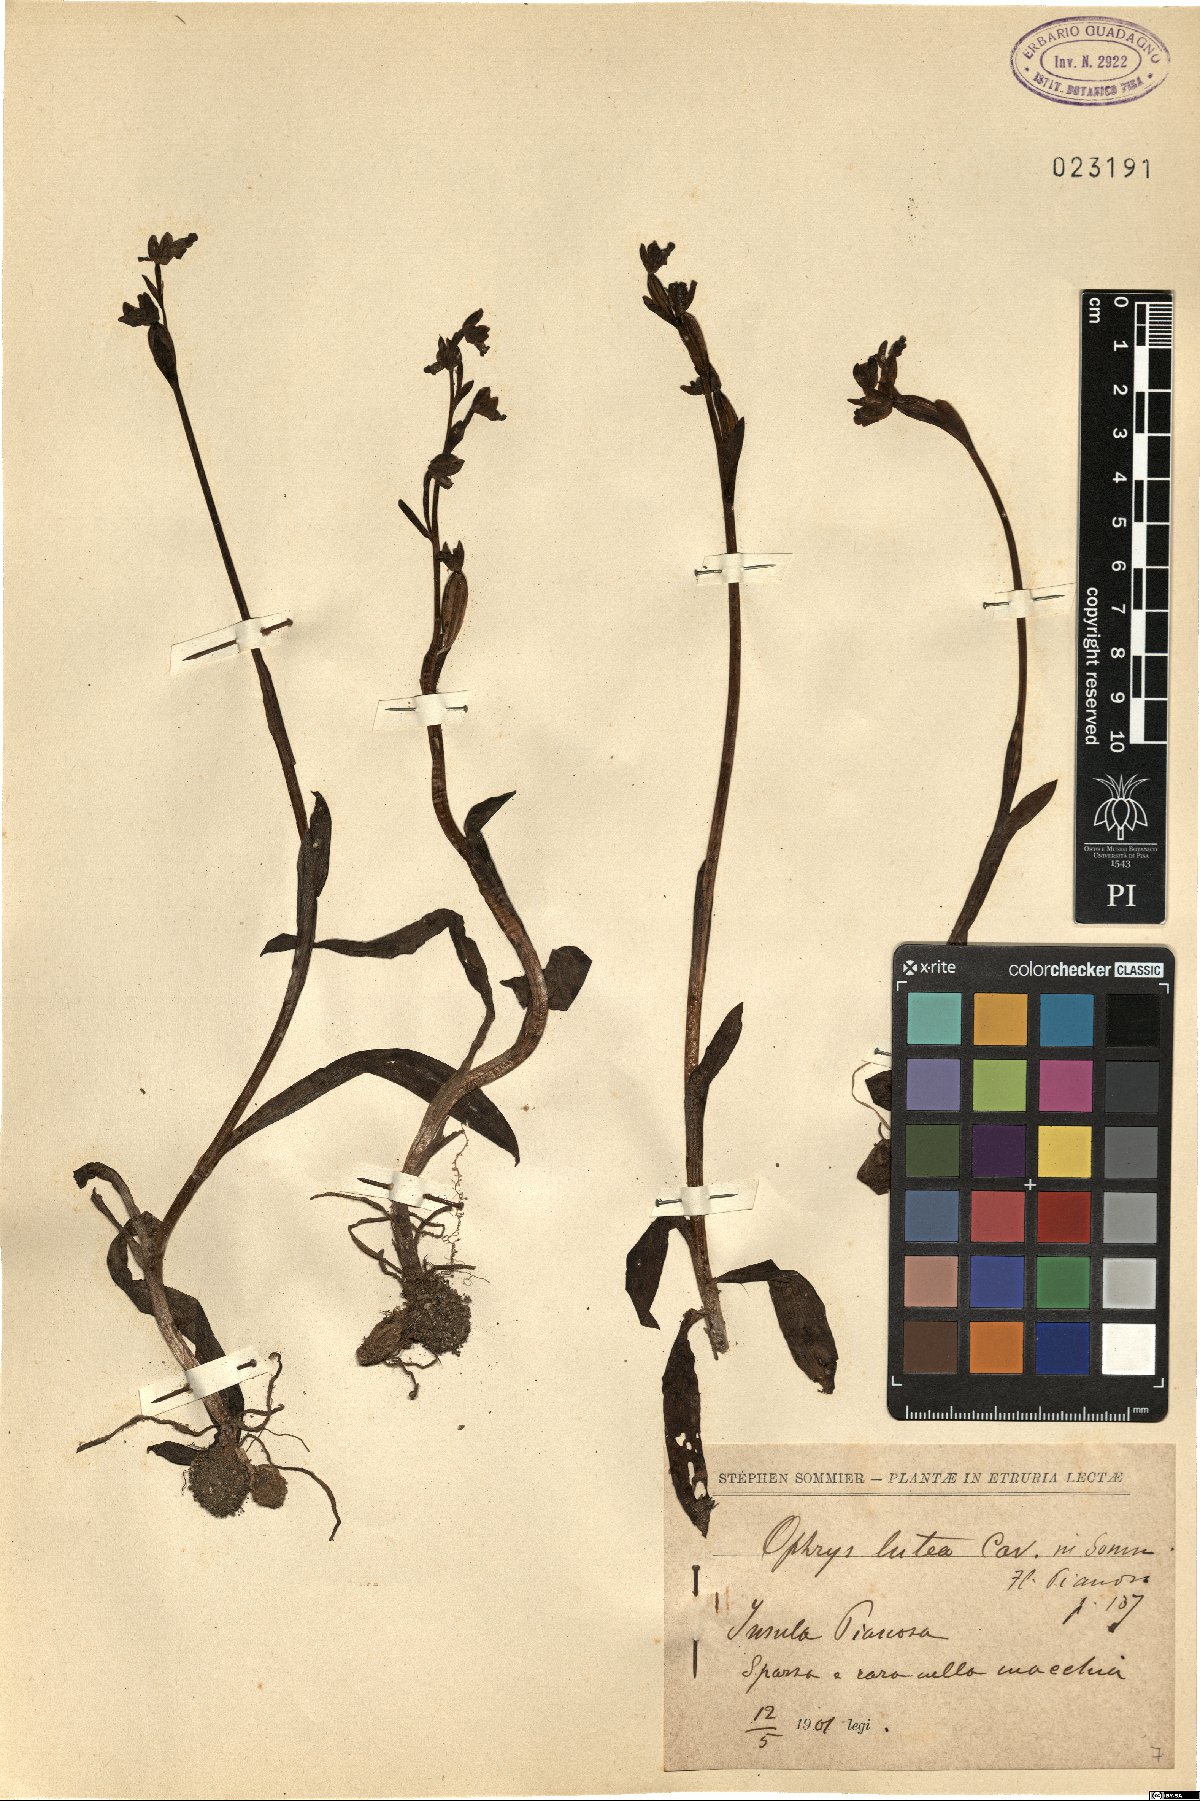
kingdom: Plantae
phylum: Tracheophyta
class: Liliopsida
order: Asparagales
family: Orchidaceae
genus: Ophrys
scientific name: Ophrys lutea
